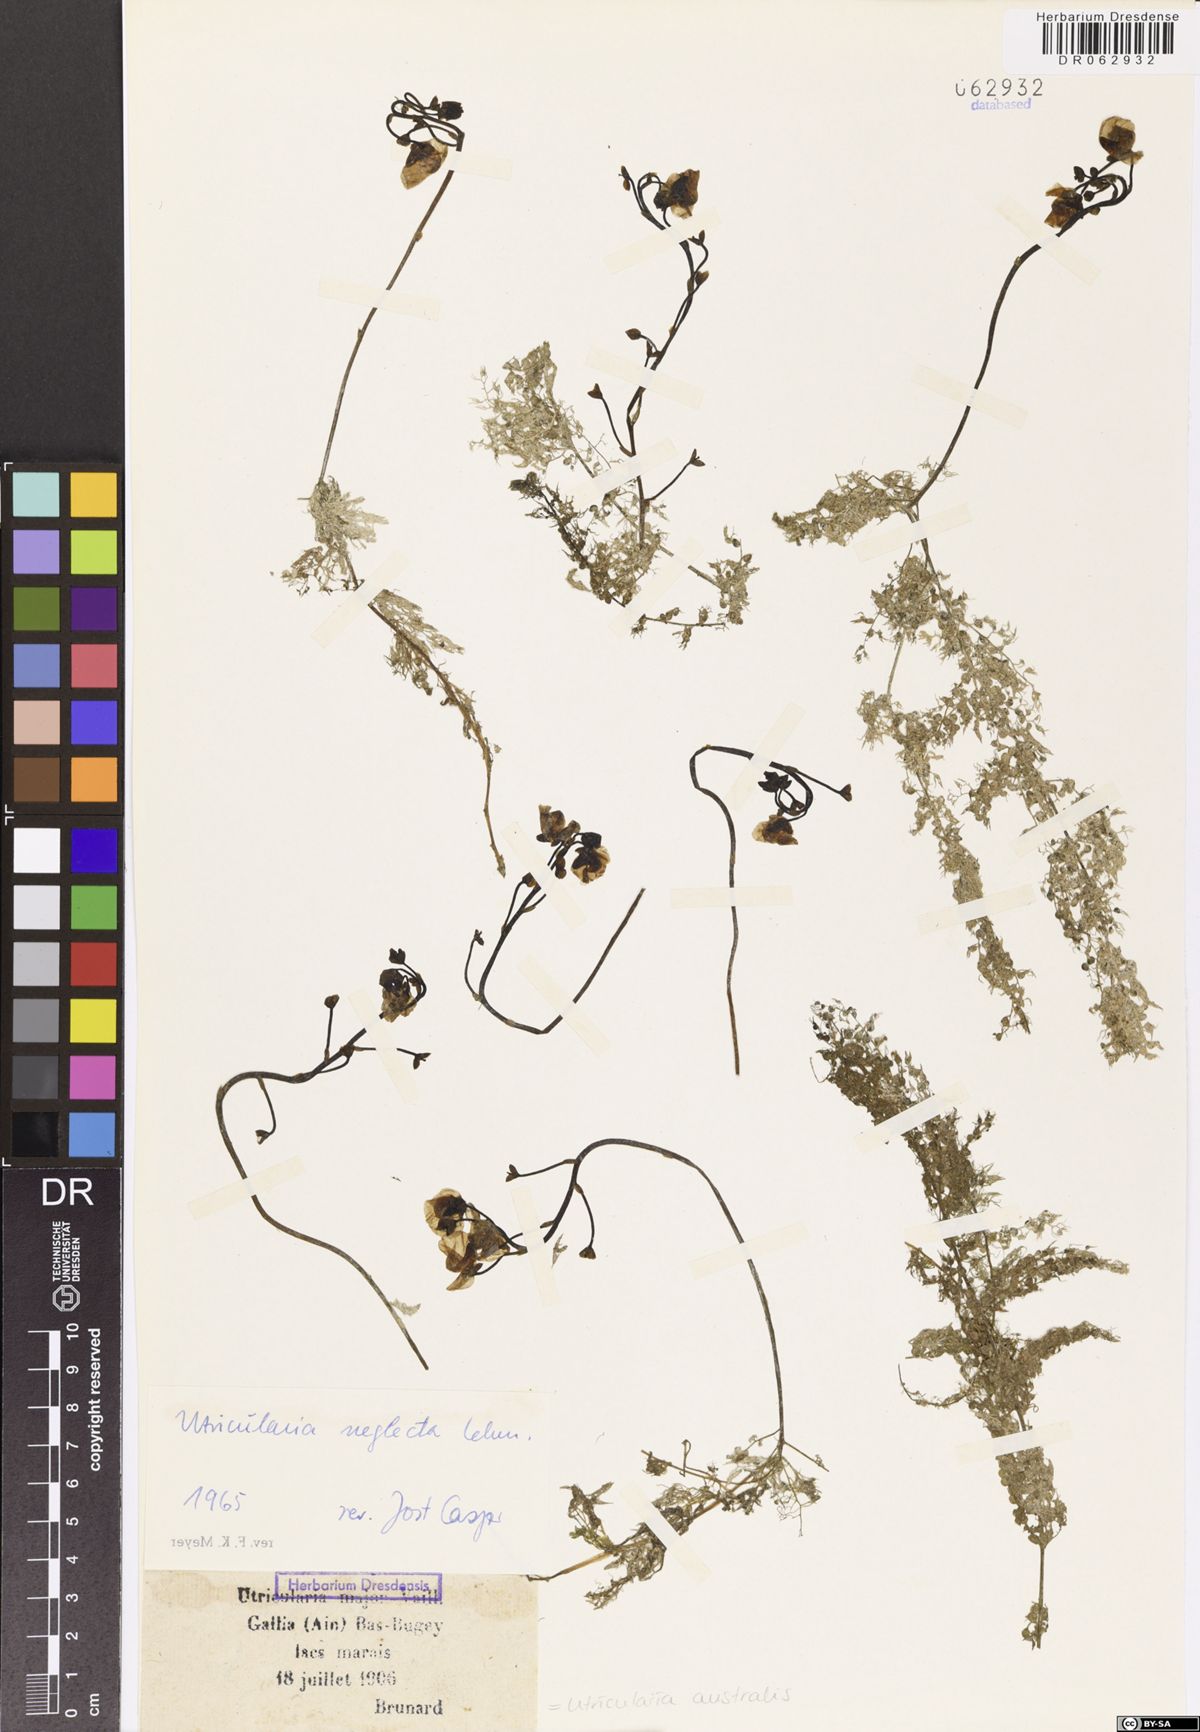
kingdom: Plantae
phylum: Tracheophyta
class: Magnoliopsida
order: Lamiales
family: Lentibulariaceae
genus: Utricularia
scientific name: Utricularia australis
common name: Bladderwort
